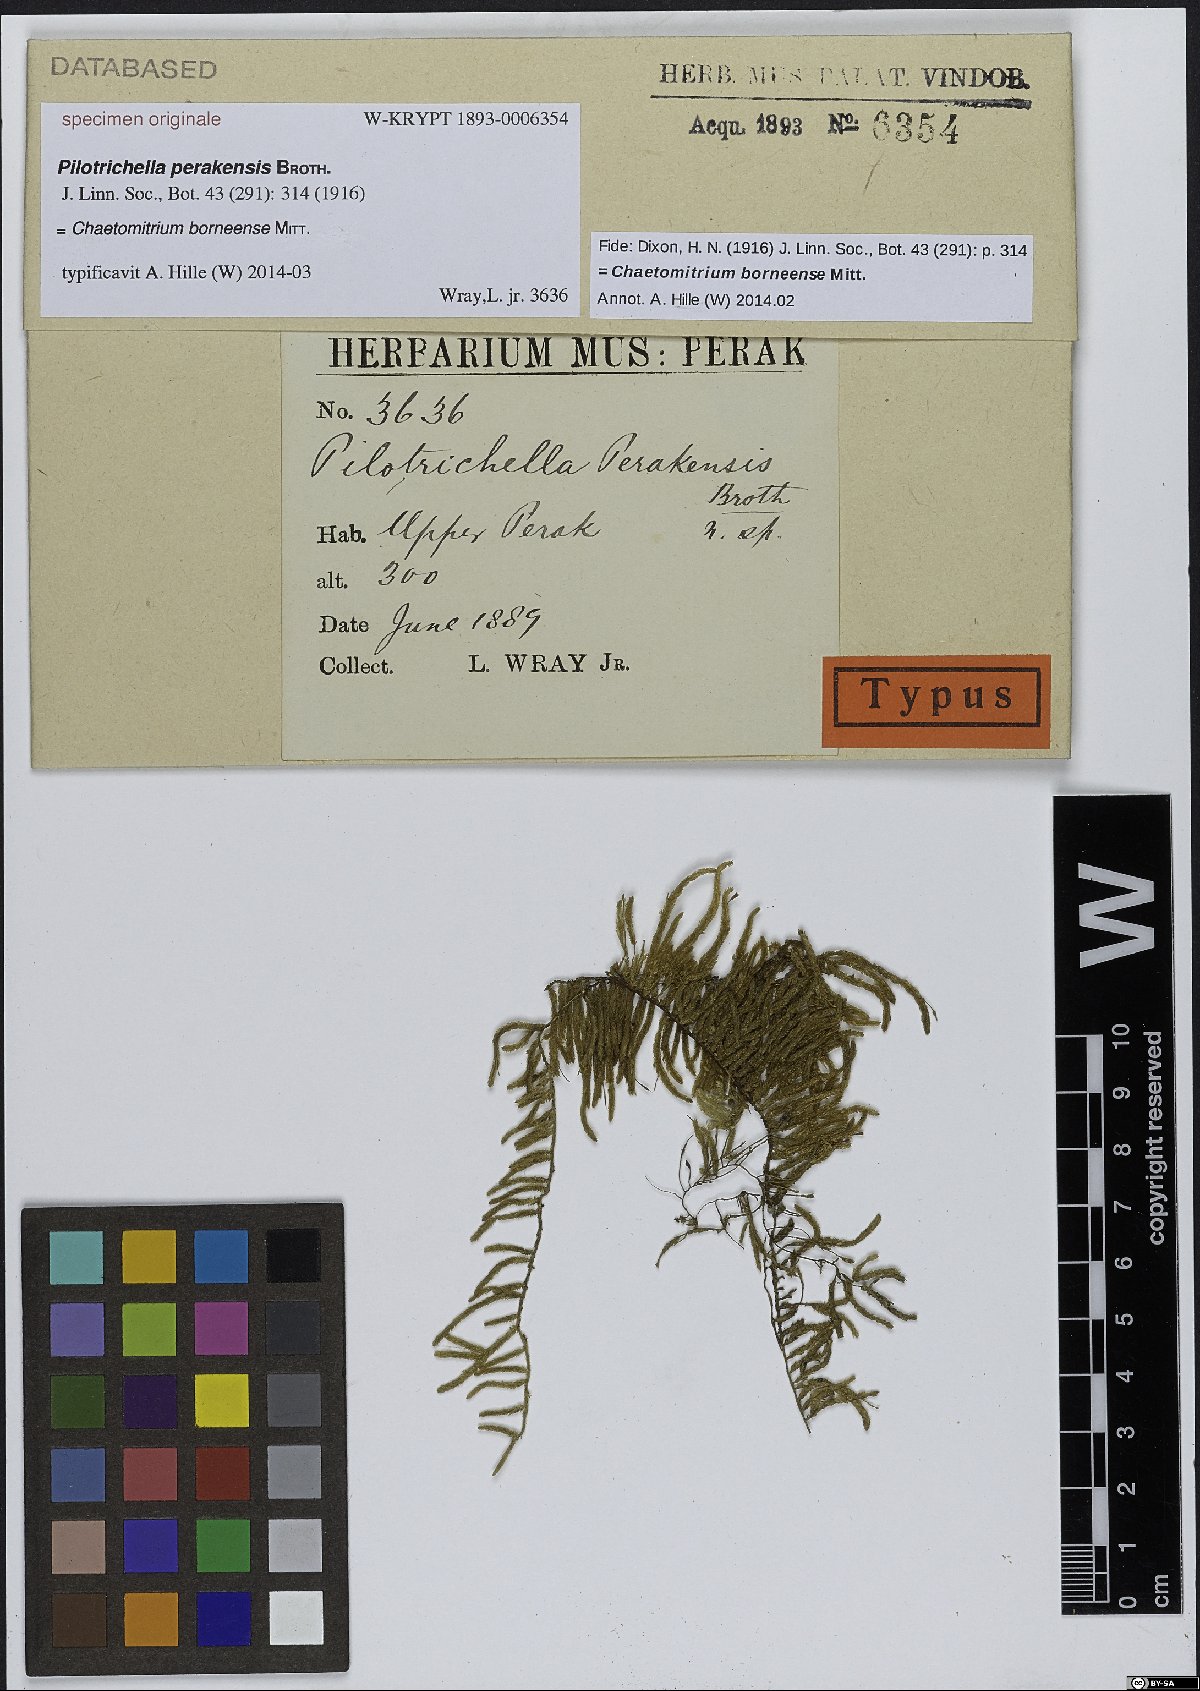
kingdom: Plantae
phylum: Bryophyta
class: Bryopsida
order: Hypnales
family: Lembophyllaceae
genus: Pilotrichella
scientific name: Pilotrichella
